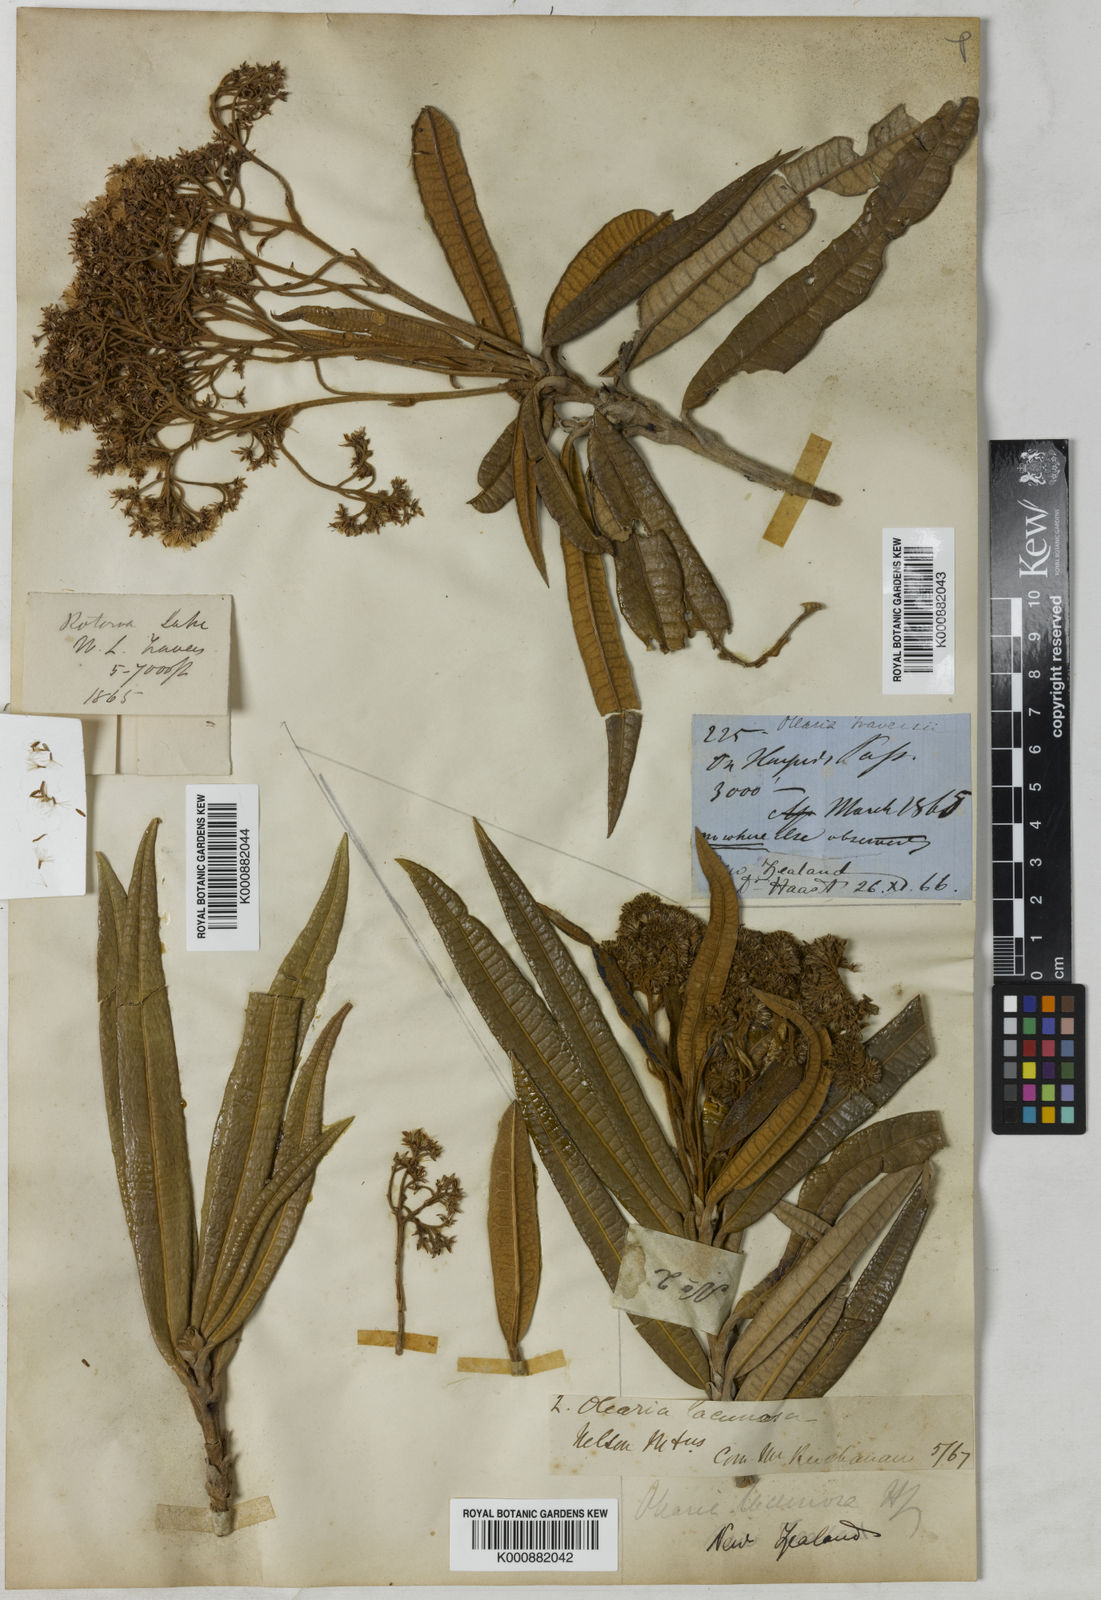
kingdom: Plantae
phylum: Tracheophyta
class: Magnoliopsida
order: Asterales
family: Asteraceae
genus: Olearia
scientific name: Olearia lacunosa
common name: Lancewood tree daisy
